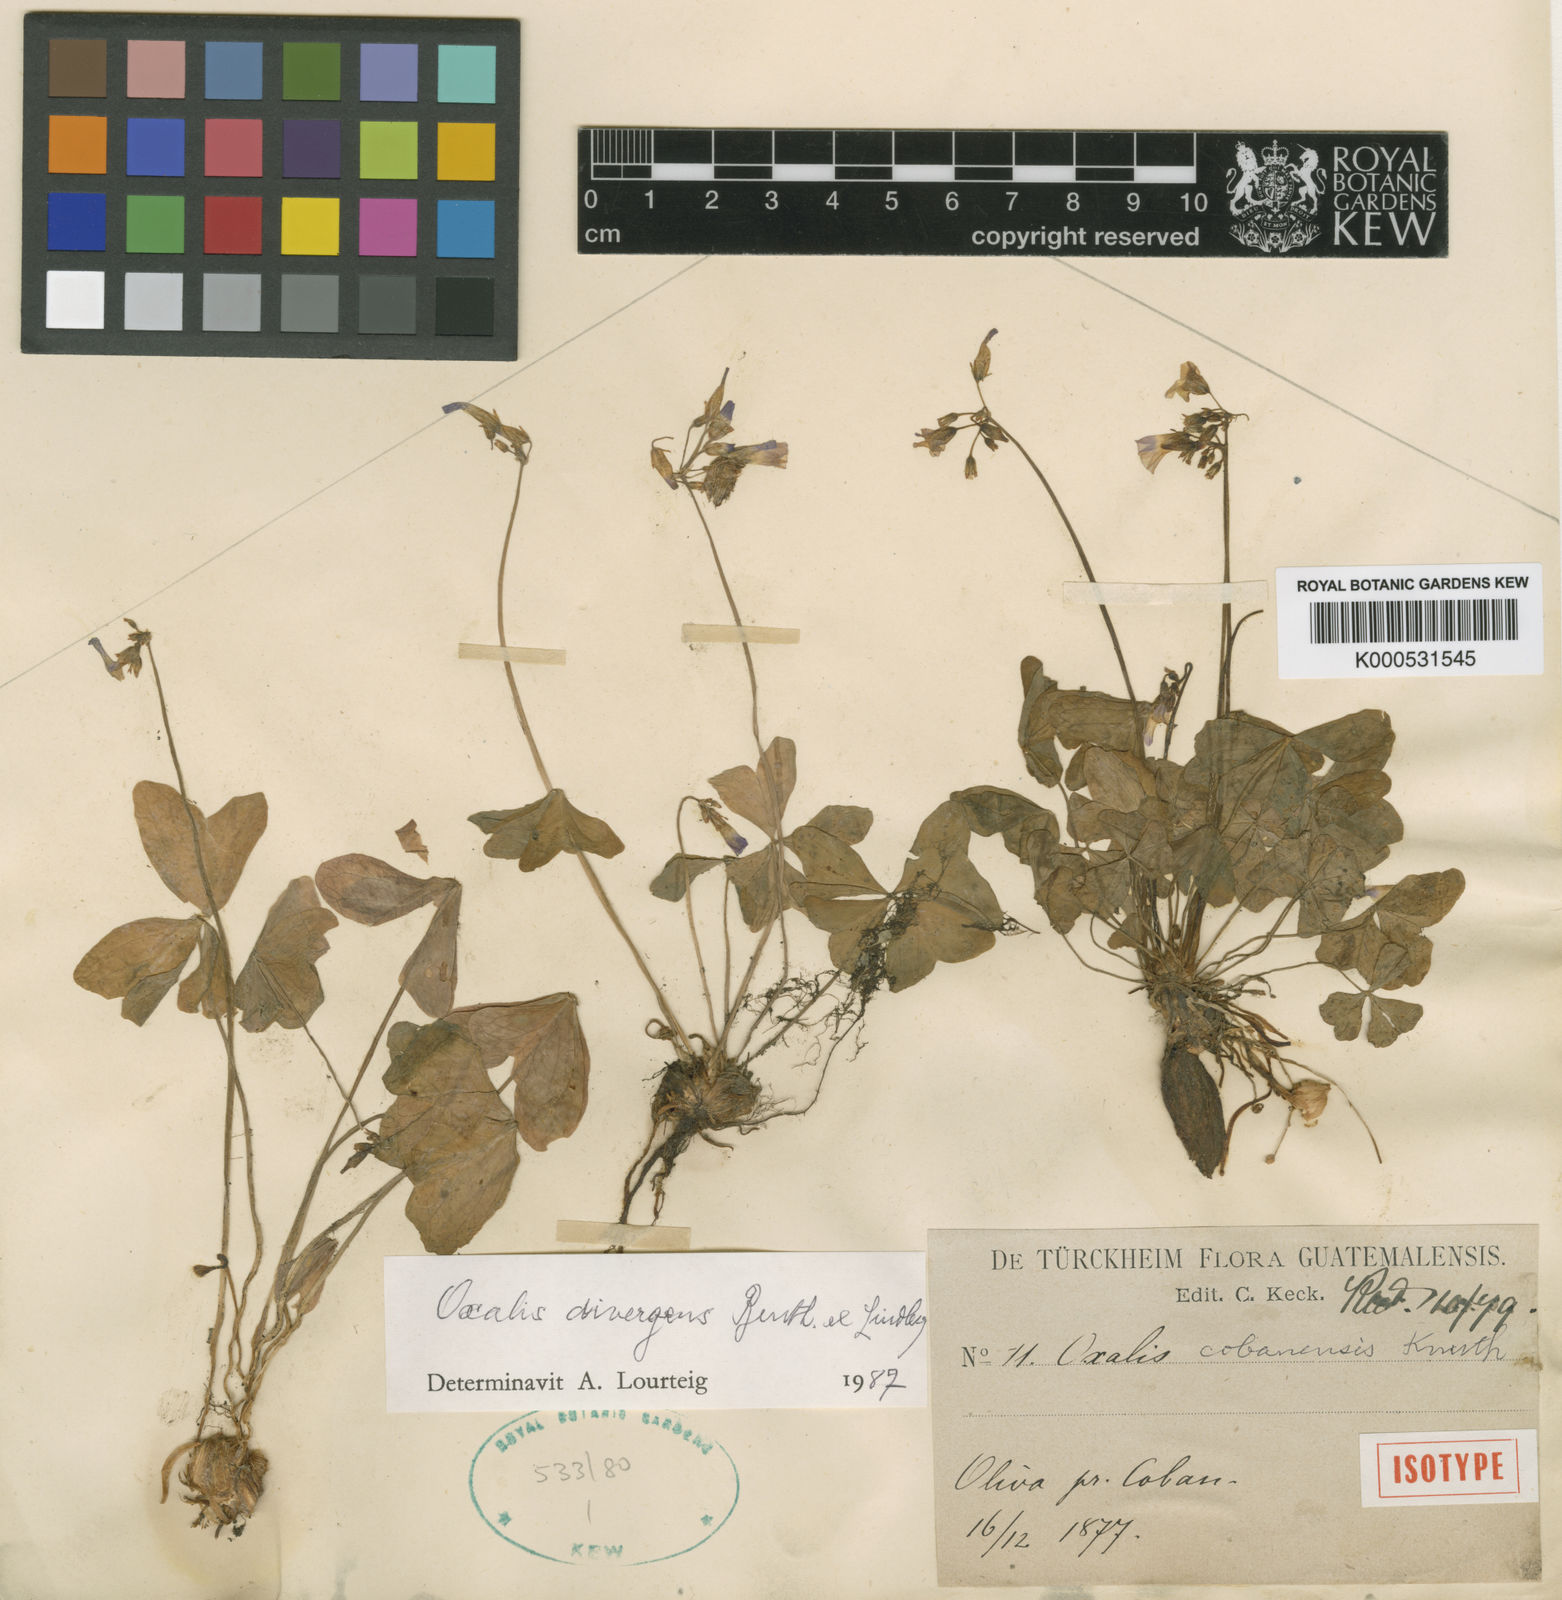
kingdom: Plantae
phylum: Tracheophyta
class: Magnoliopsida
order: Oxalidales
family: Oxalidaceae
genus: Oxalis
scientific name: Oxalis divergens
